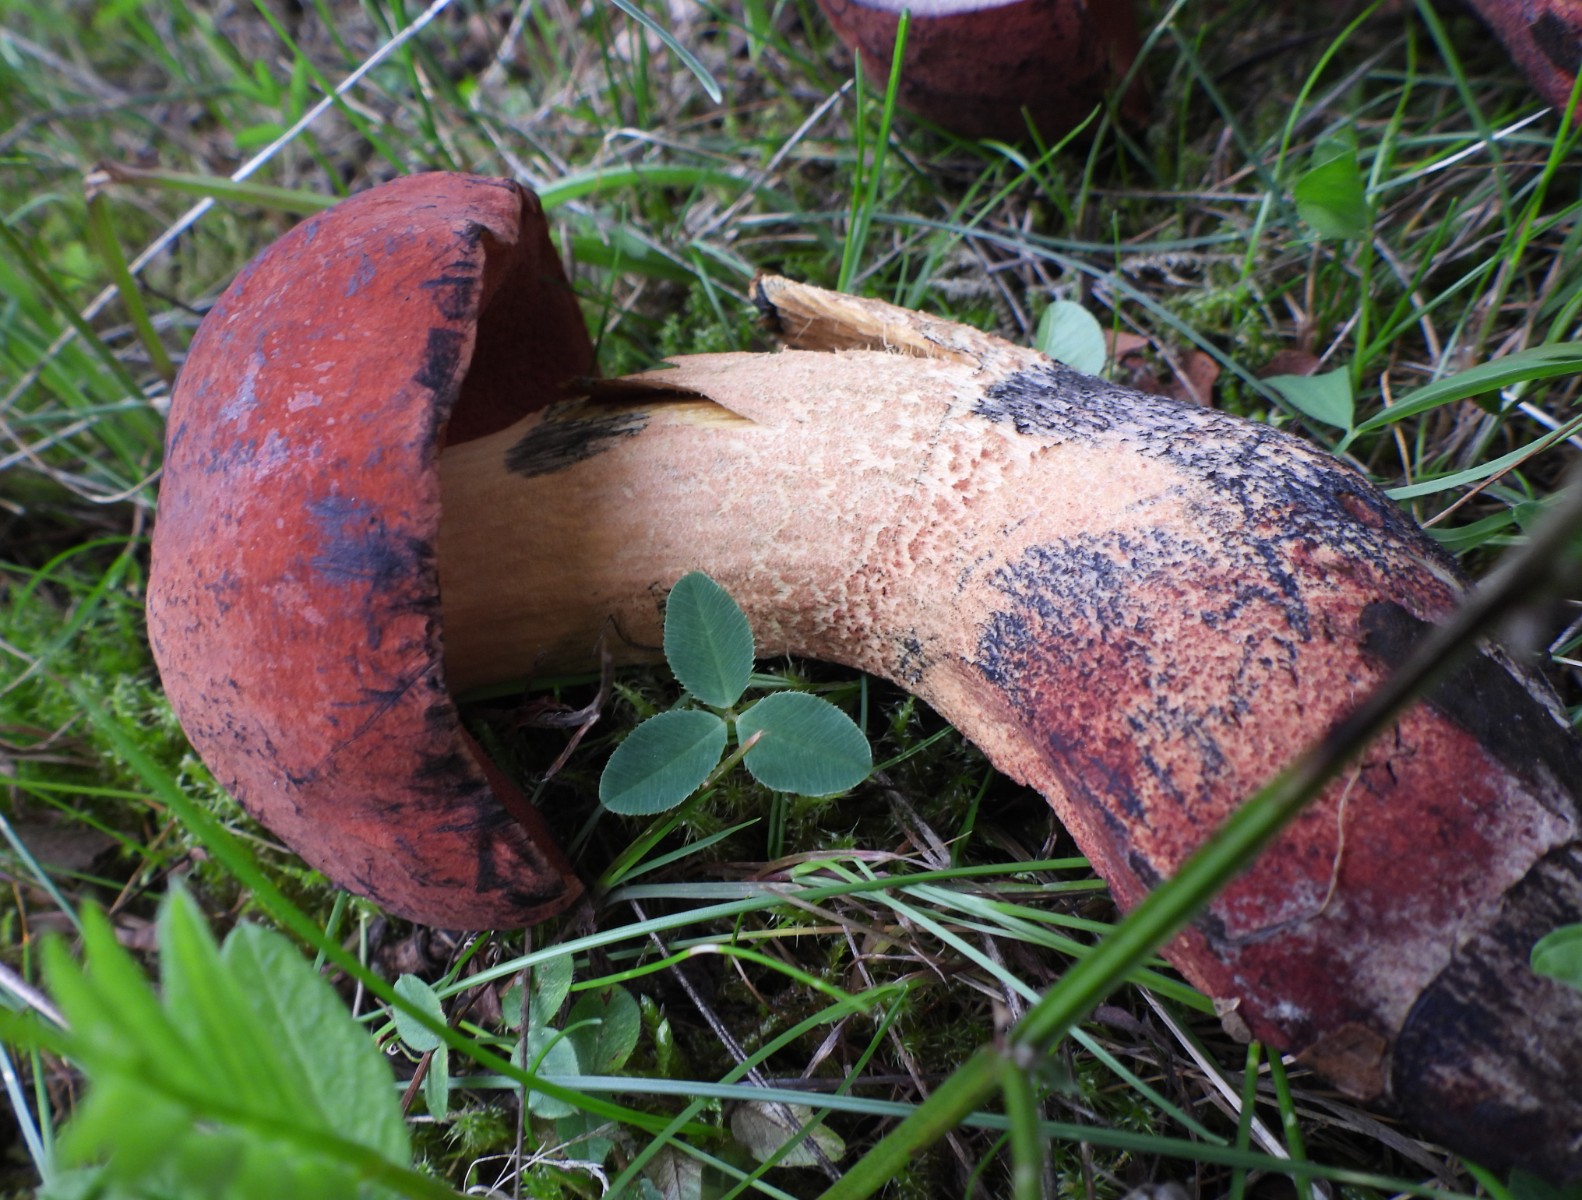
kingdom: Fungi
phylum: Basidiomycota
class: Agaricomycetes
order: Boletales
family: Boletaceae
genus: Cyanoboletus
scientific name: Cyanoboletus pulverulentus
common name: sortblånende rørhat
